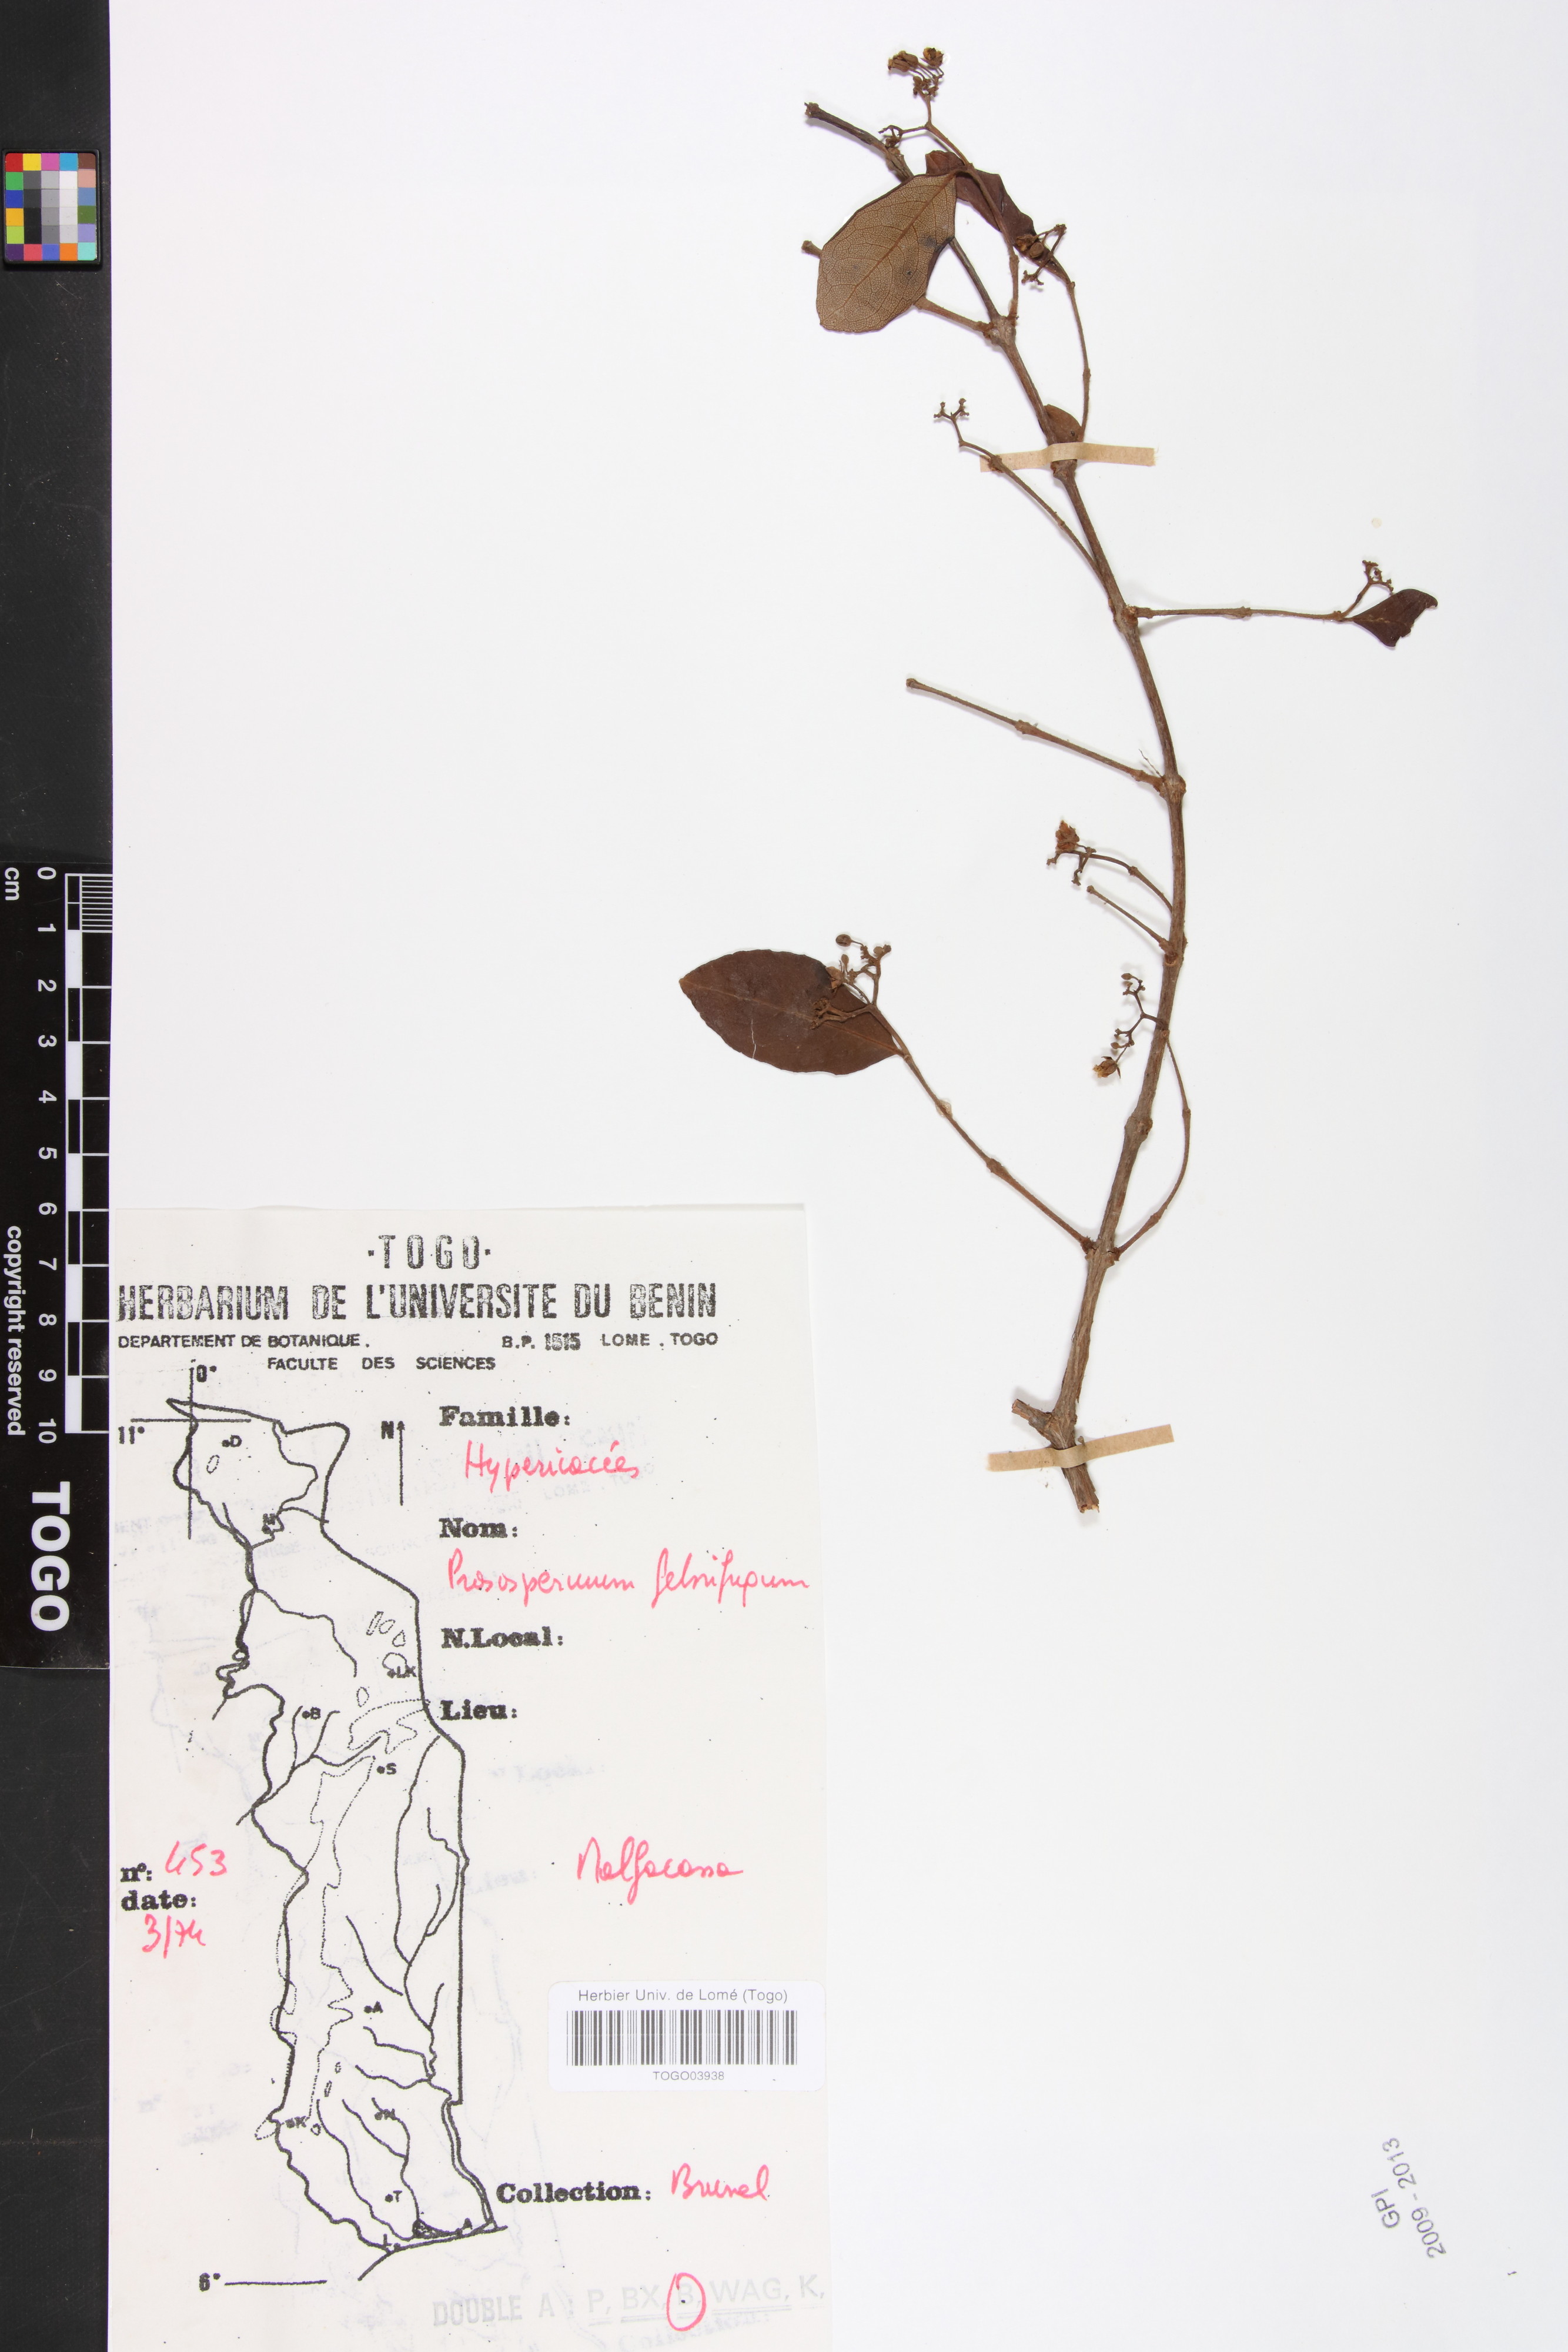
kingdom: Plantae
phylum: Tracheophyta
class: Magnoliopsida
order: Malpighiales
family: Hypericaceae
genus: Psorospermum
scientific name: Psorospermum febrifugum
